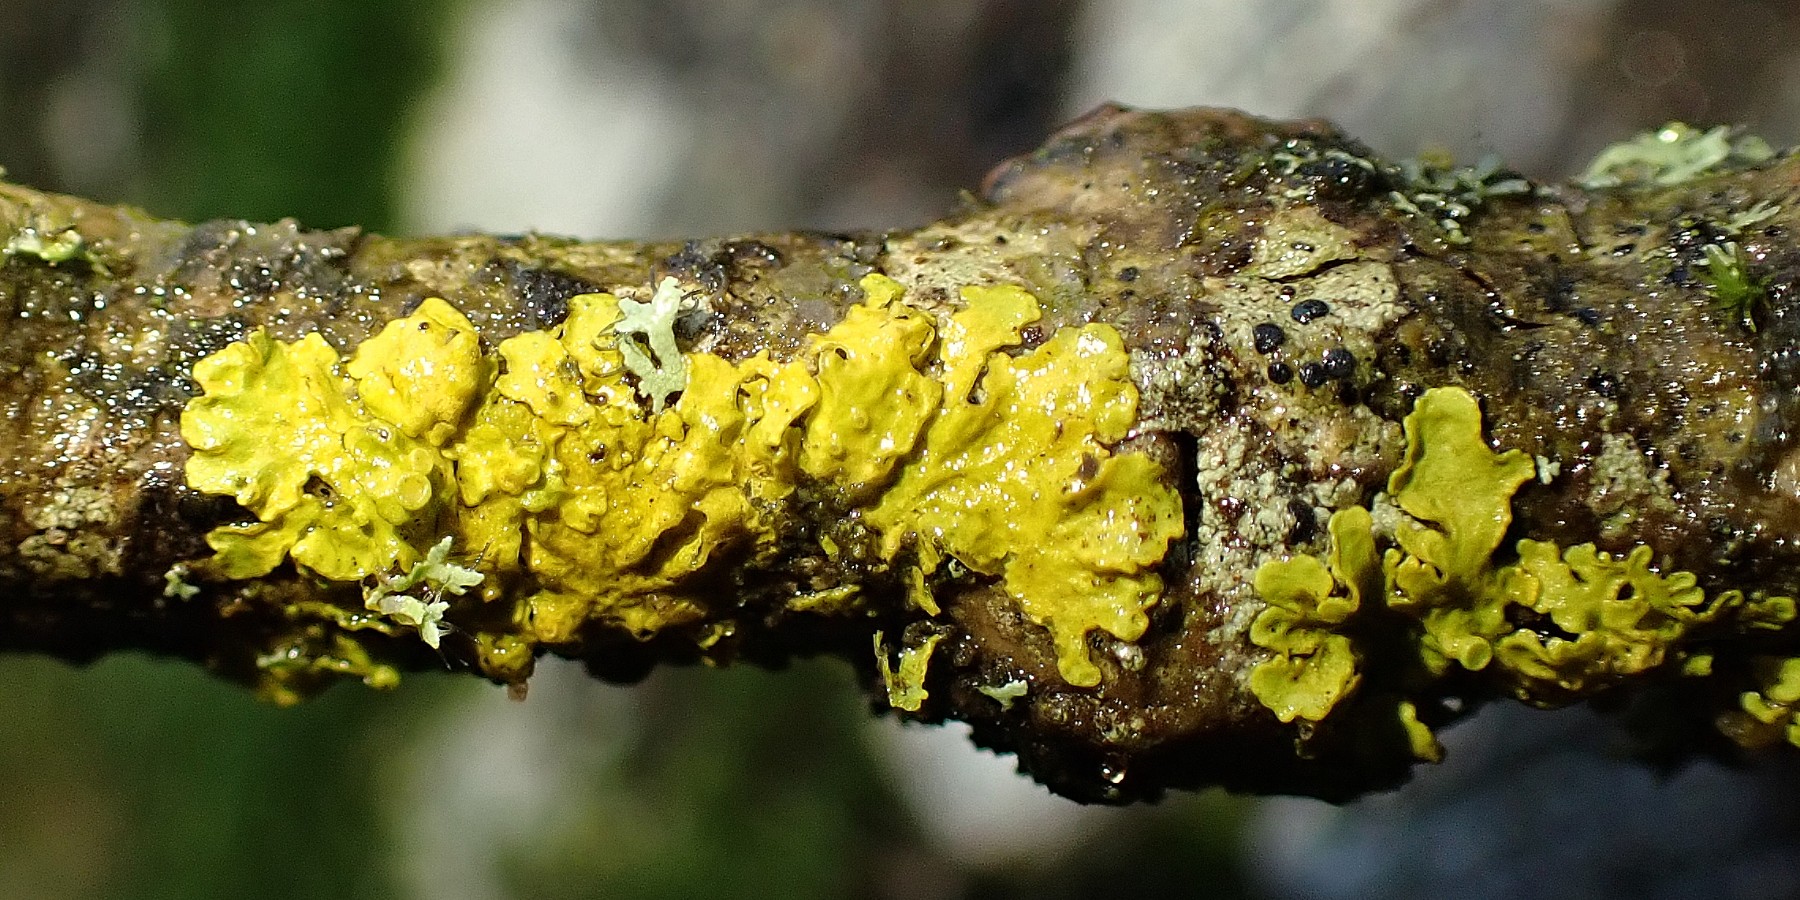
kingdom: Fungi
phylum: Ascomycota
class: Lecanoromycetes
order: Teloschistales
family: Teloschistaceae
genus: Xanthoria
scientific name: Xanthoria parietina
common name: almindelig væggelav
